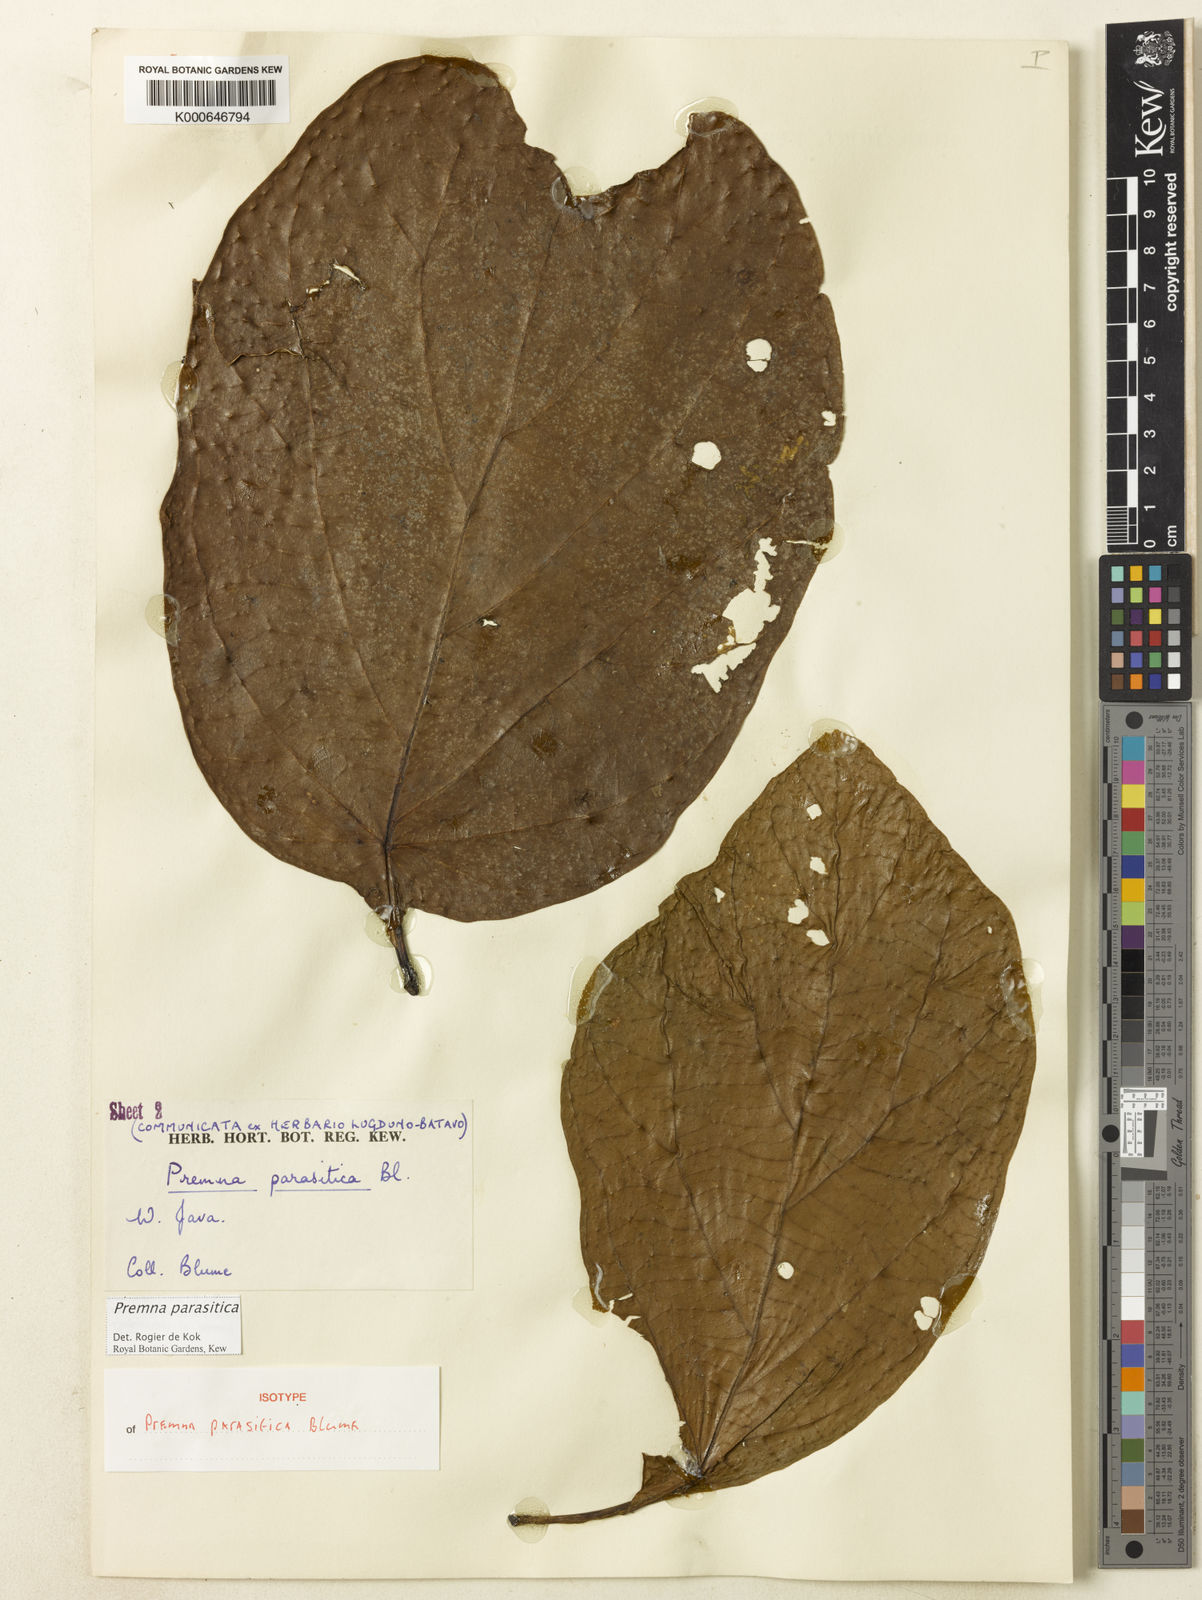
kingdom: Plantae
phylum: Tracheophyta
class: Magnoliopsida
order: Lamiales
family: Lamiaceae
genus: Premna
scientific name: Premna parasitica
